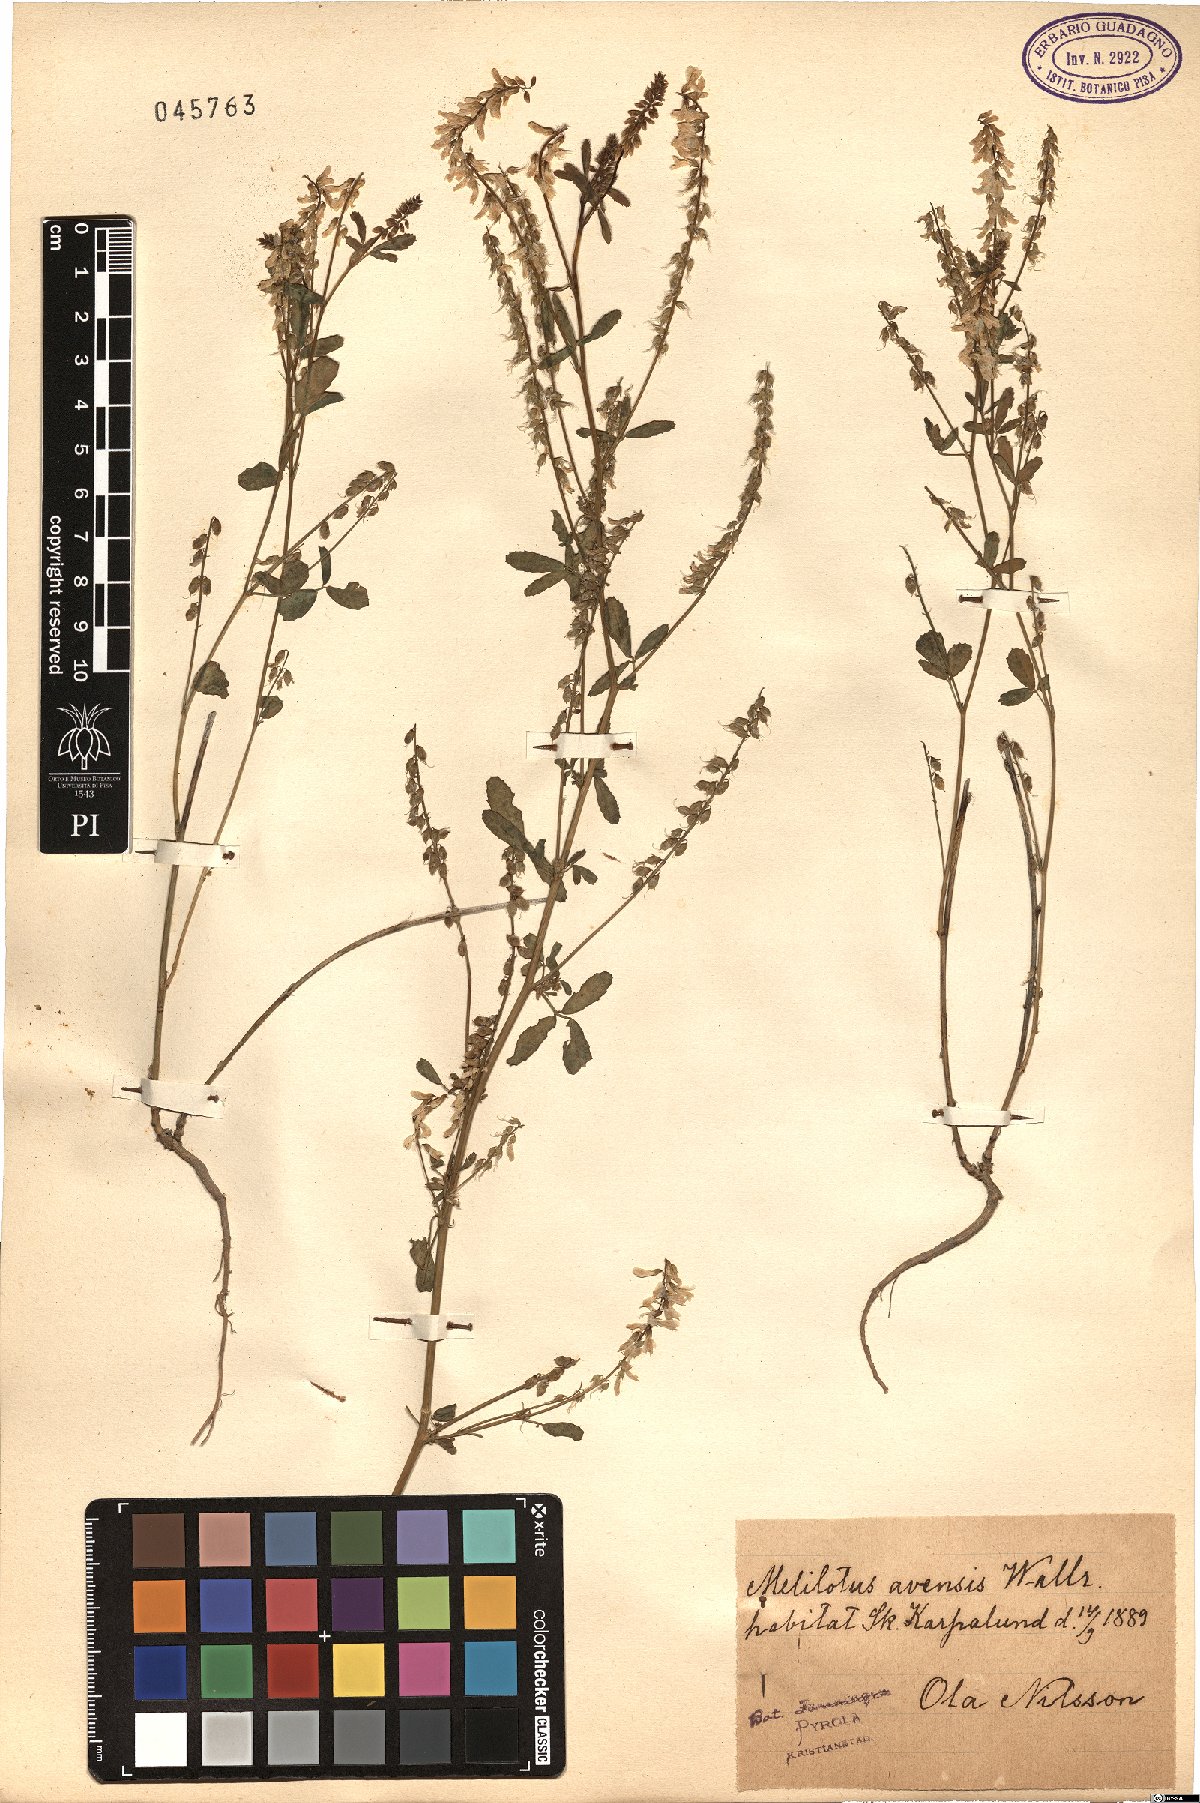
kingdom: Plantae
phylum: Tracheophyta
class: Magnoliopsida
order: Fabales
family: Fabaceae
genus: Melilotus
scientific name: Melilotus officinalis
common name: Sweetclover
